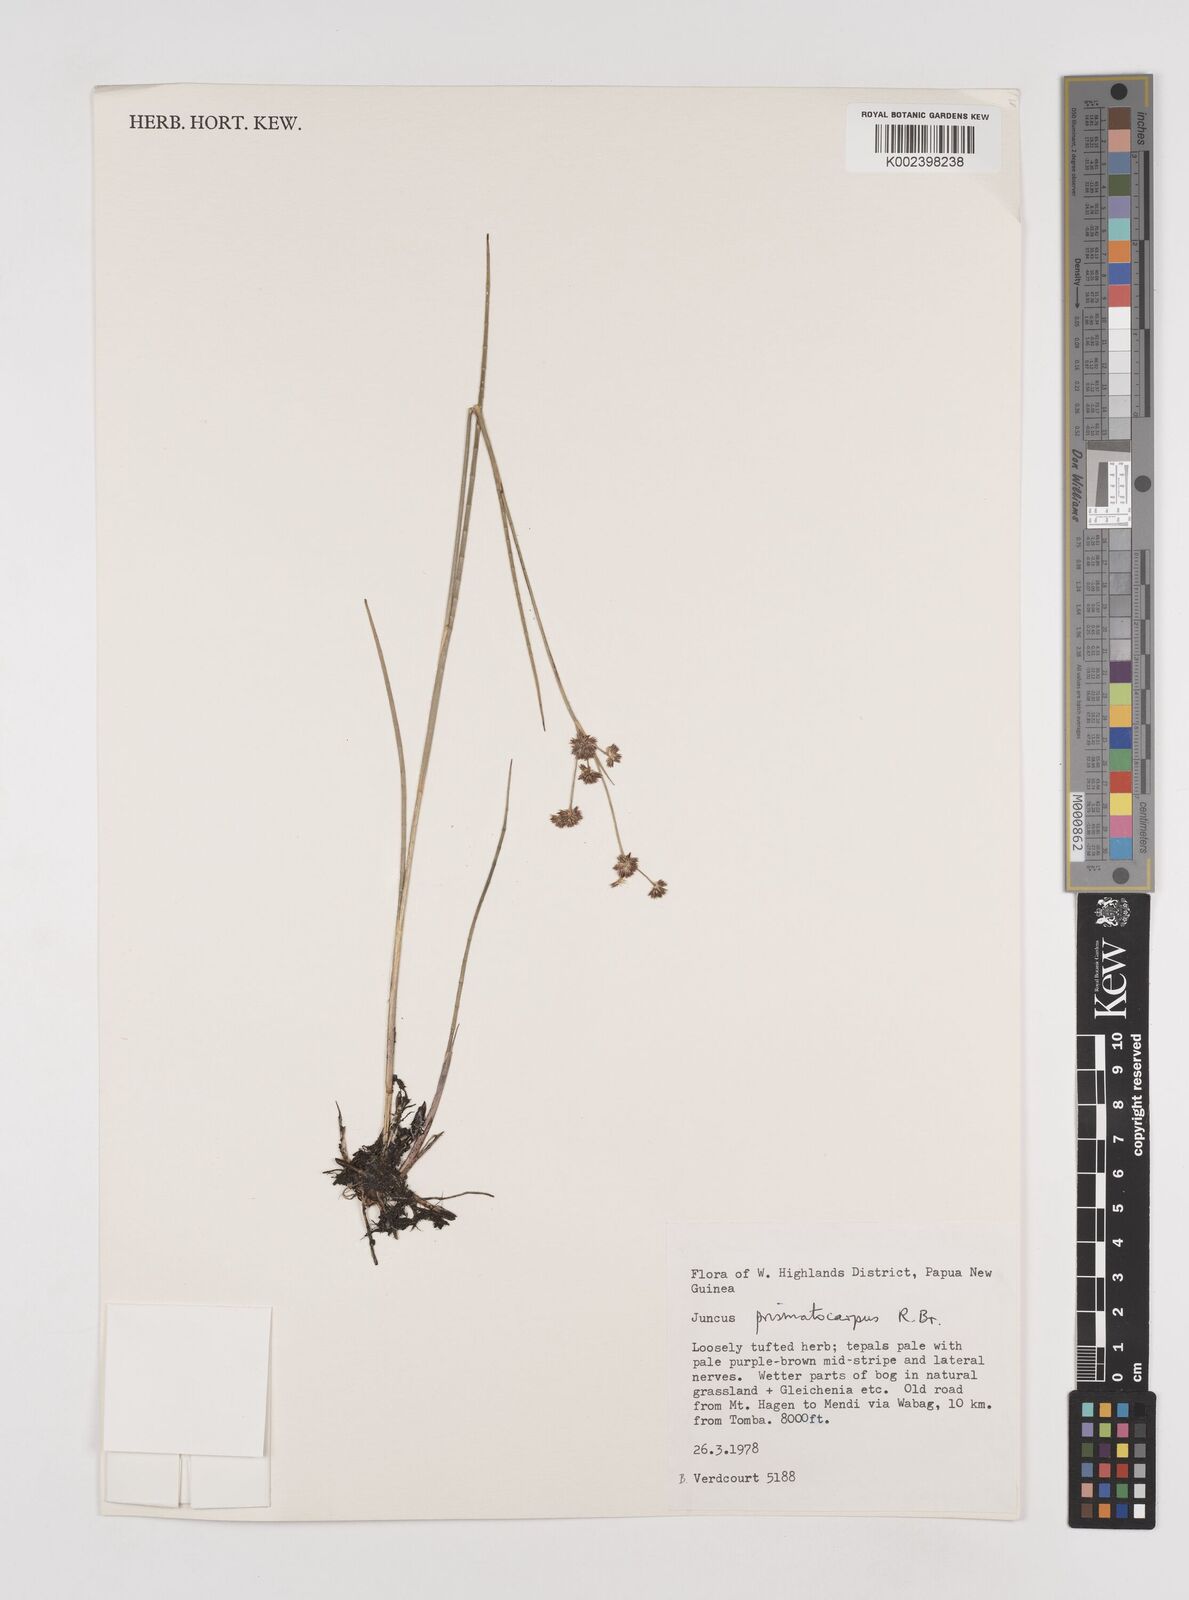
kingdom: Plantae
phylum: Tracheophyta
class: Liliopsida
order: Poales
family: Juncaceae
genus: Juncus
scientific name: Juncus wallichianus
